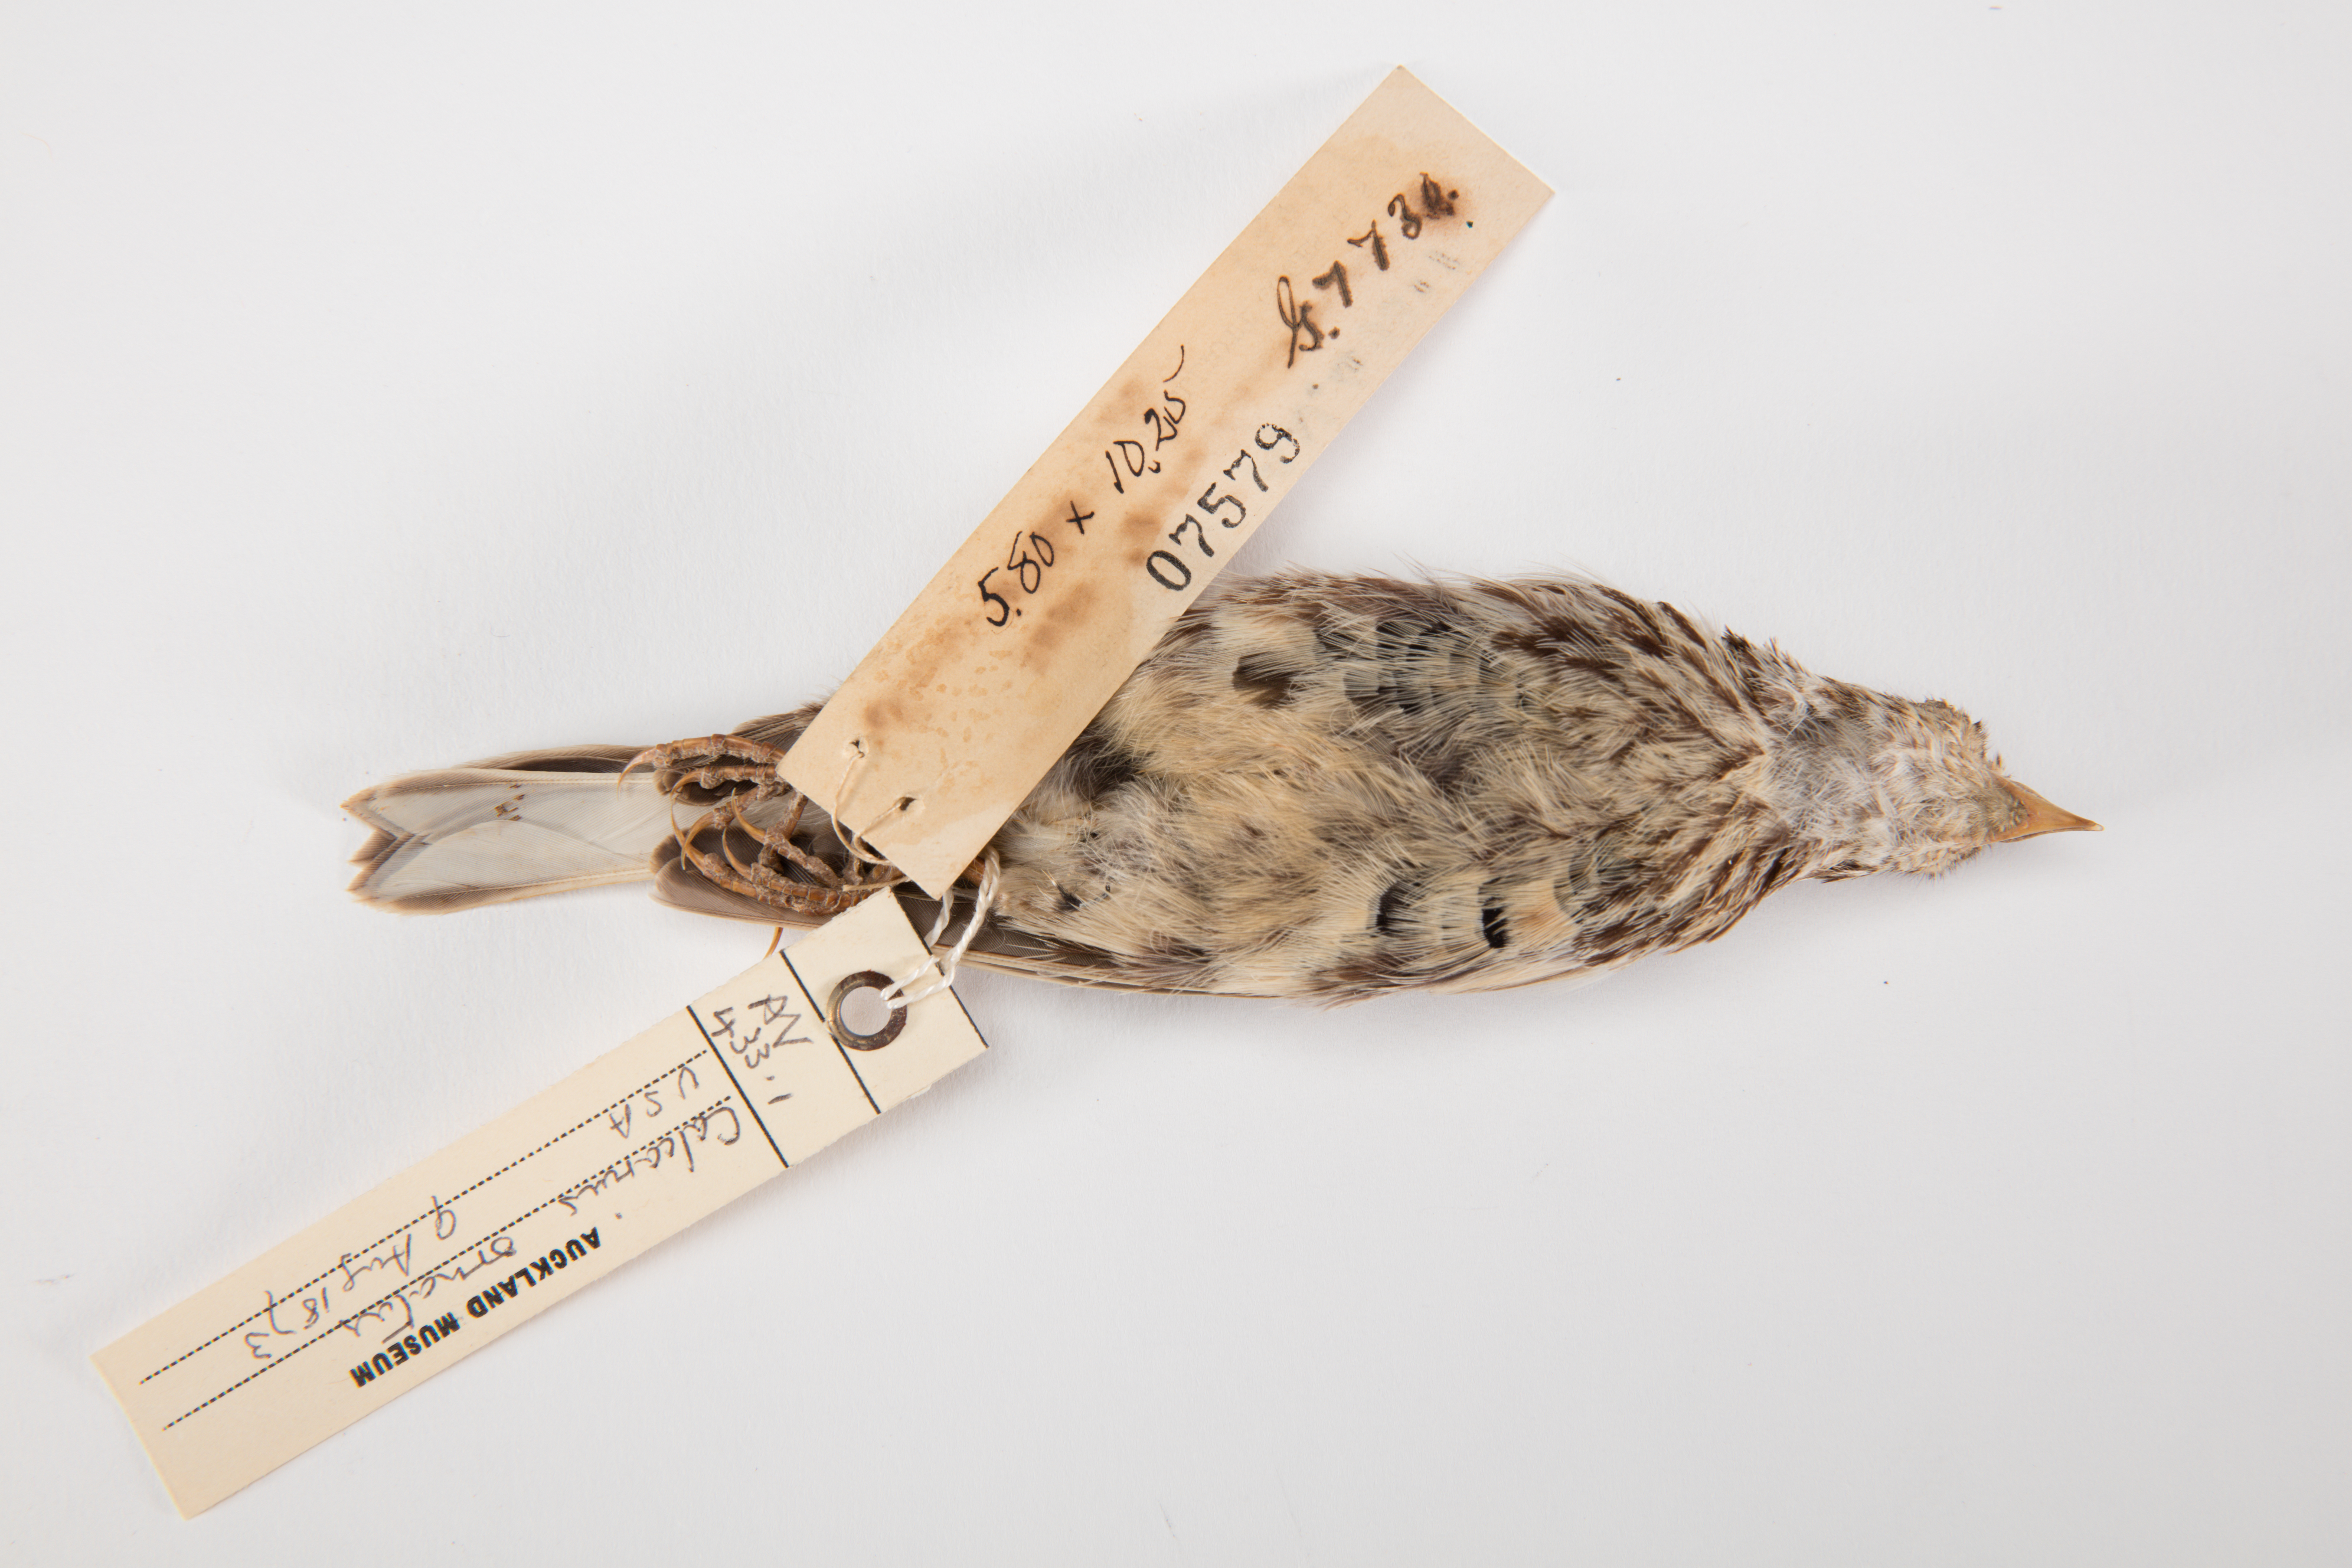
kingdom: Animalia
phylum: Chordata
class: Aves
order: Passeriformes
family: Calcariidae
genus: Calcarius
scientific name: Calcarius ornatus
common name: Chestnut-collared longspur
